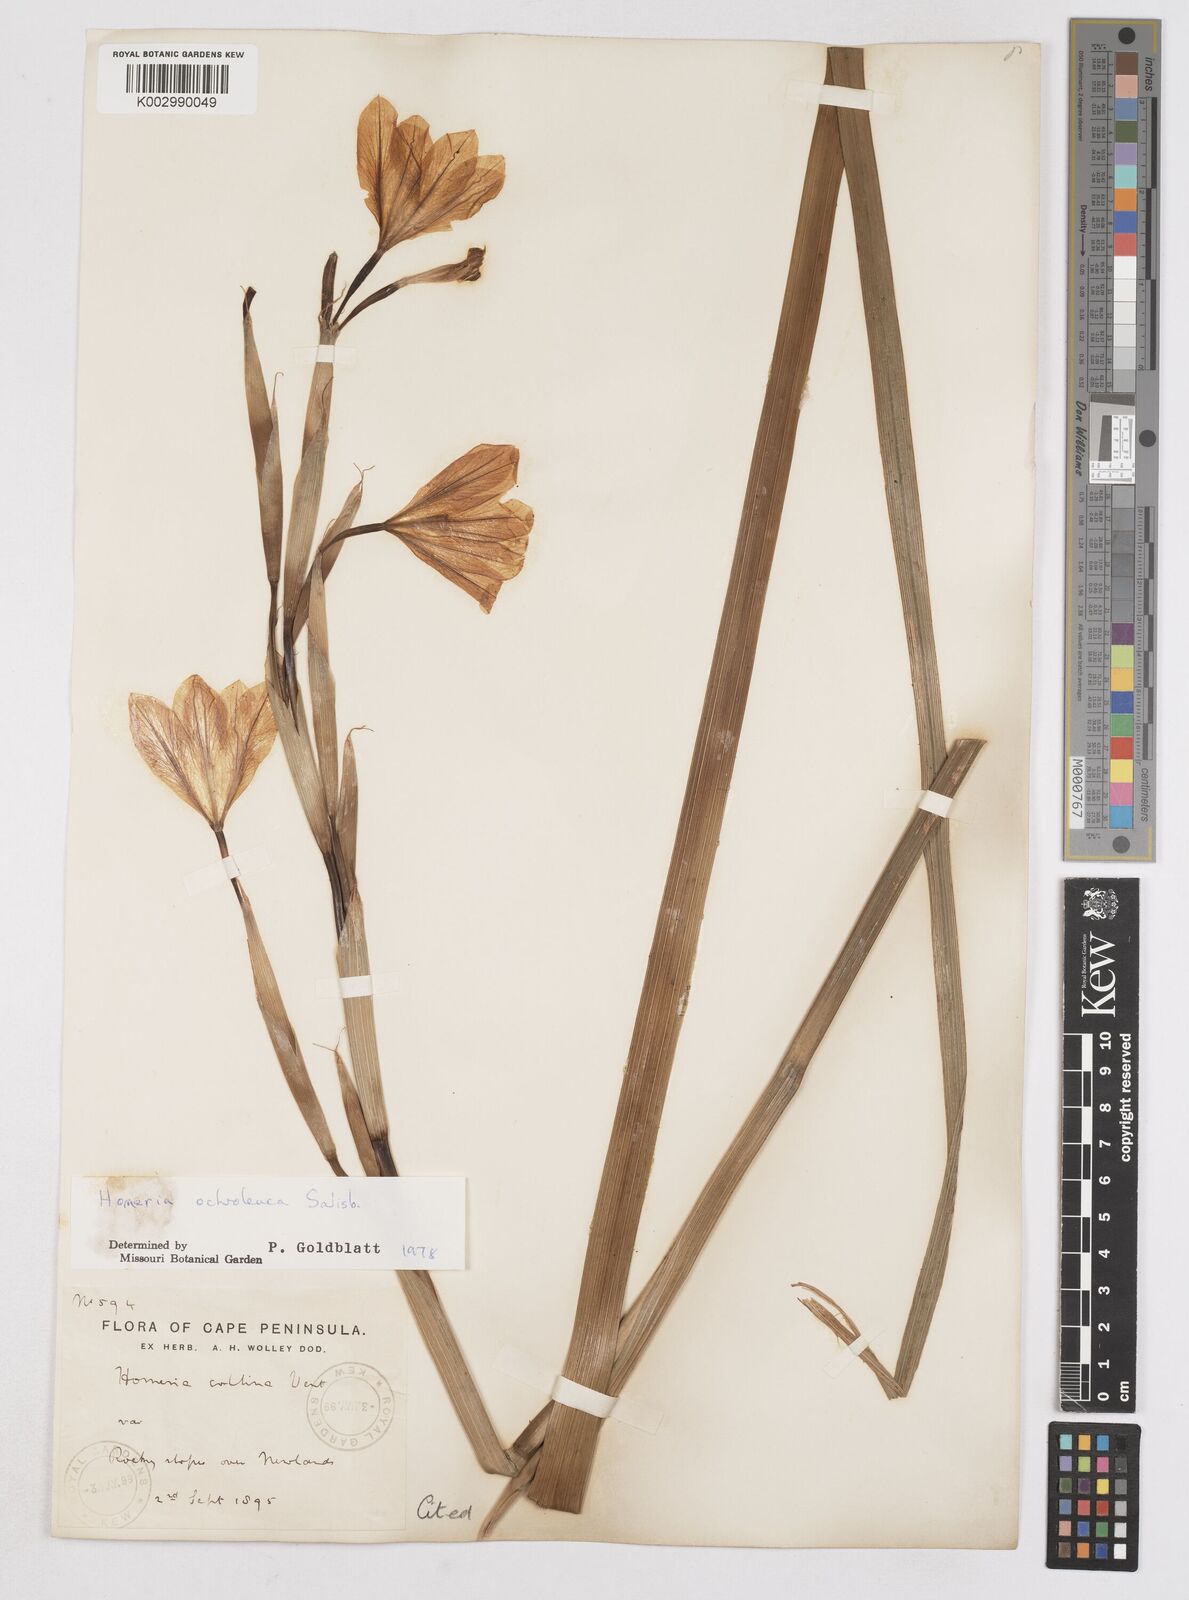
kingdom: Plantae
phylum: Tracheophyta
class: Liliopsida
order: Asparagales
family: Iridaceae
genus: Moraea
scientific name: Moraea ochroleuca
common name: Red tulp
